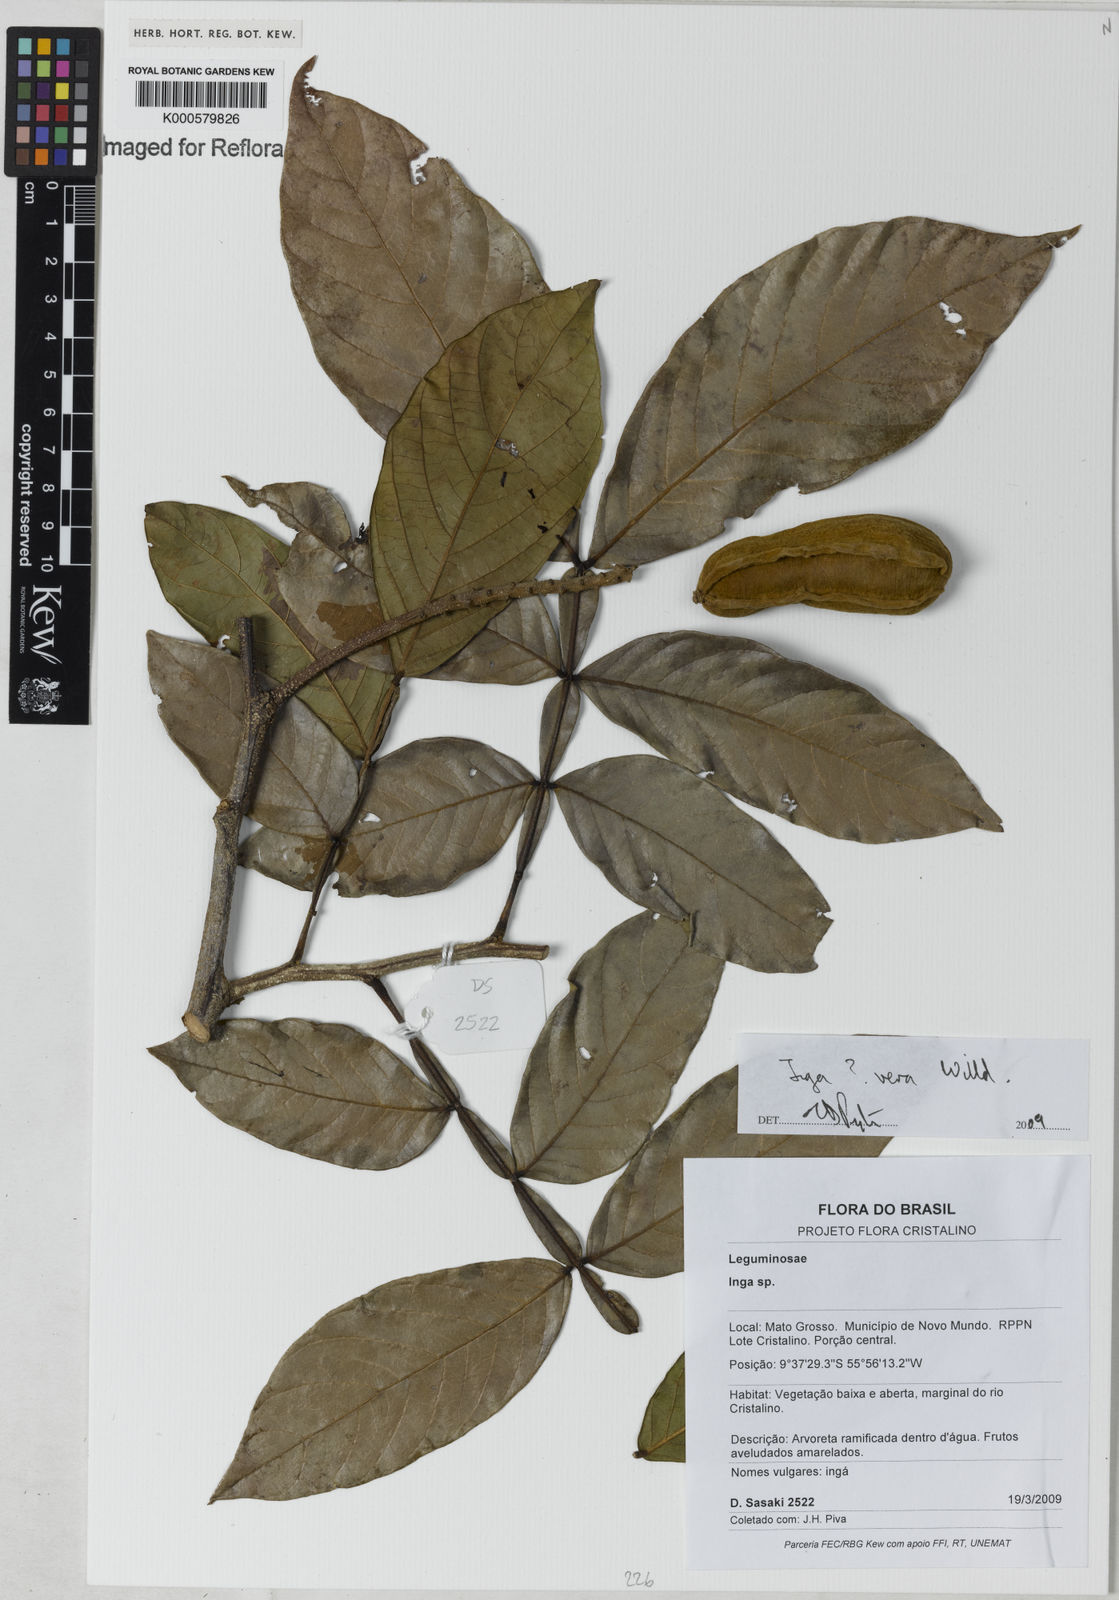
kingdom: Plantae
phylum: Tracheophyta
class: Magnoliopsida
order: Fabales
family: Fabaceae
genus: Inga
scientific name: Inga vera
